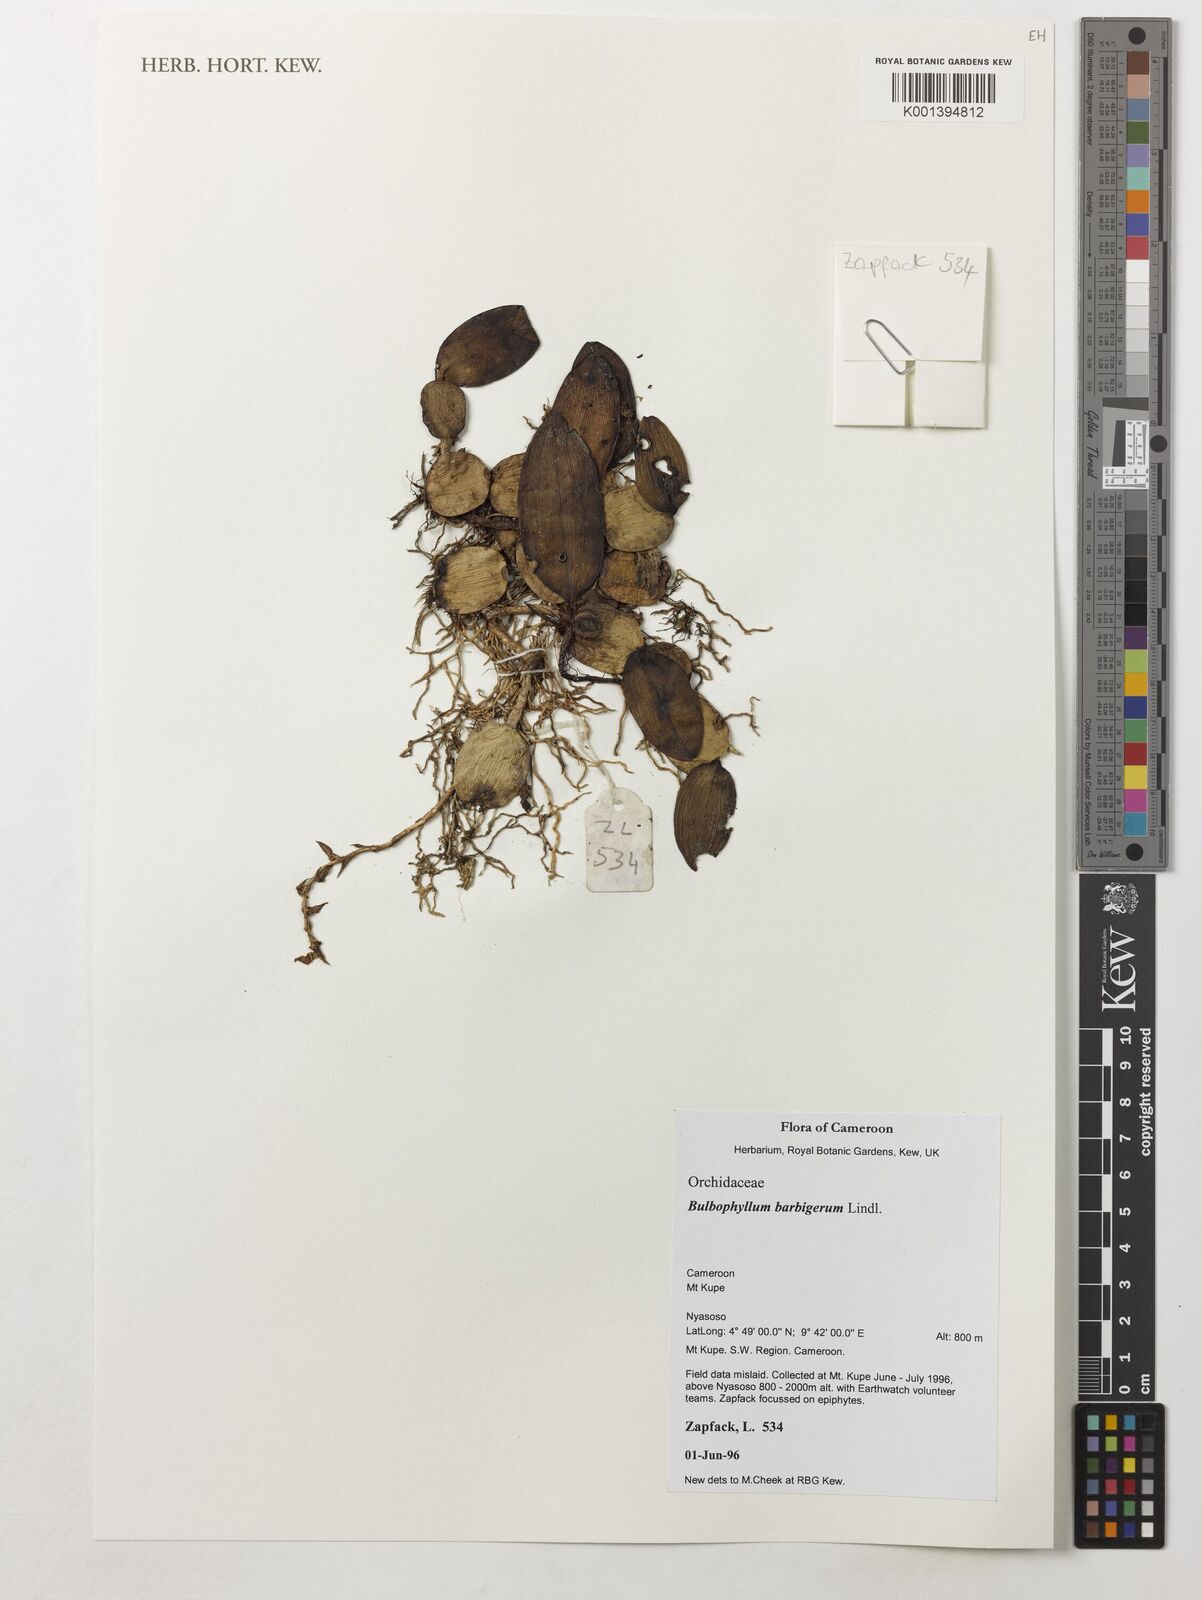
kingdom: Plantae
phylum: Tracheophyta
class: Liliopsida
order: Asparagales
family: Orchidaceae
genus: Bulbophyllum
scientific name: Bulbophyllum barbigerum
